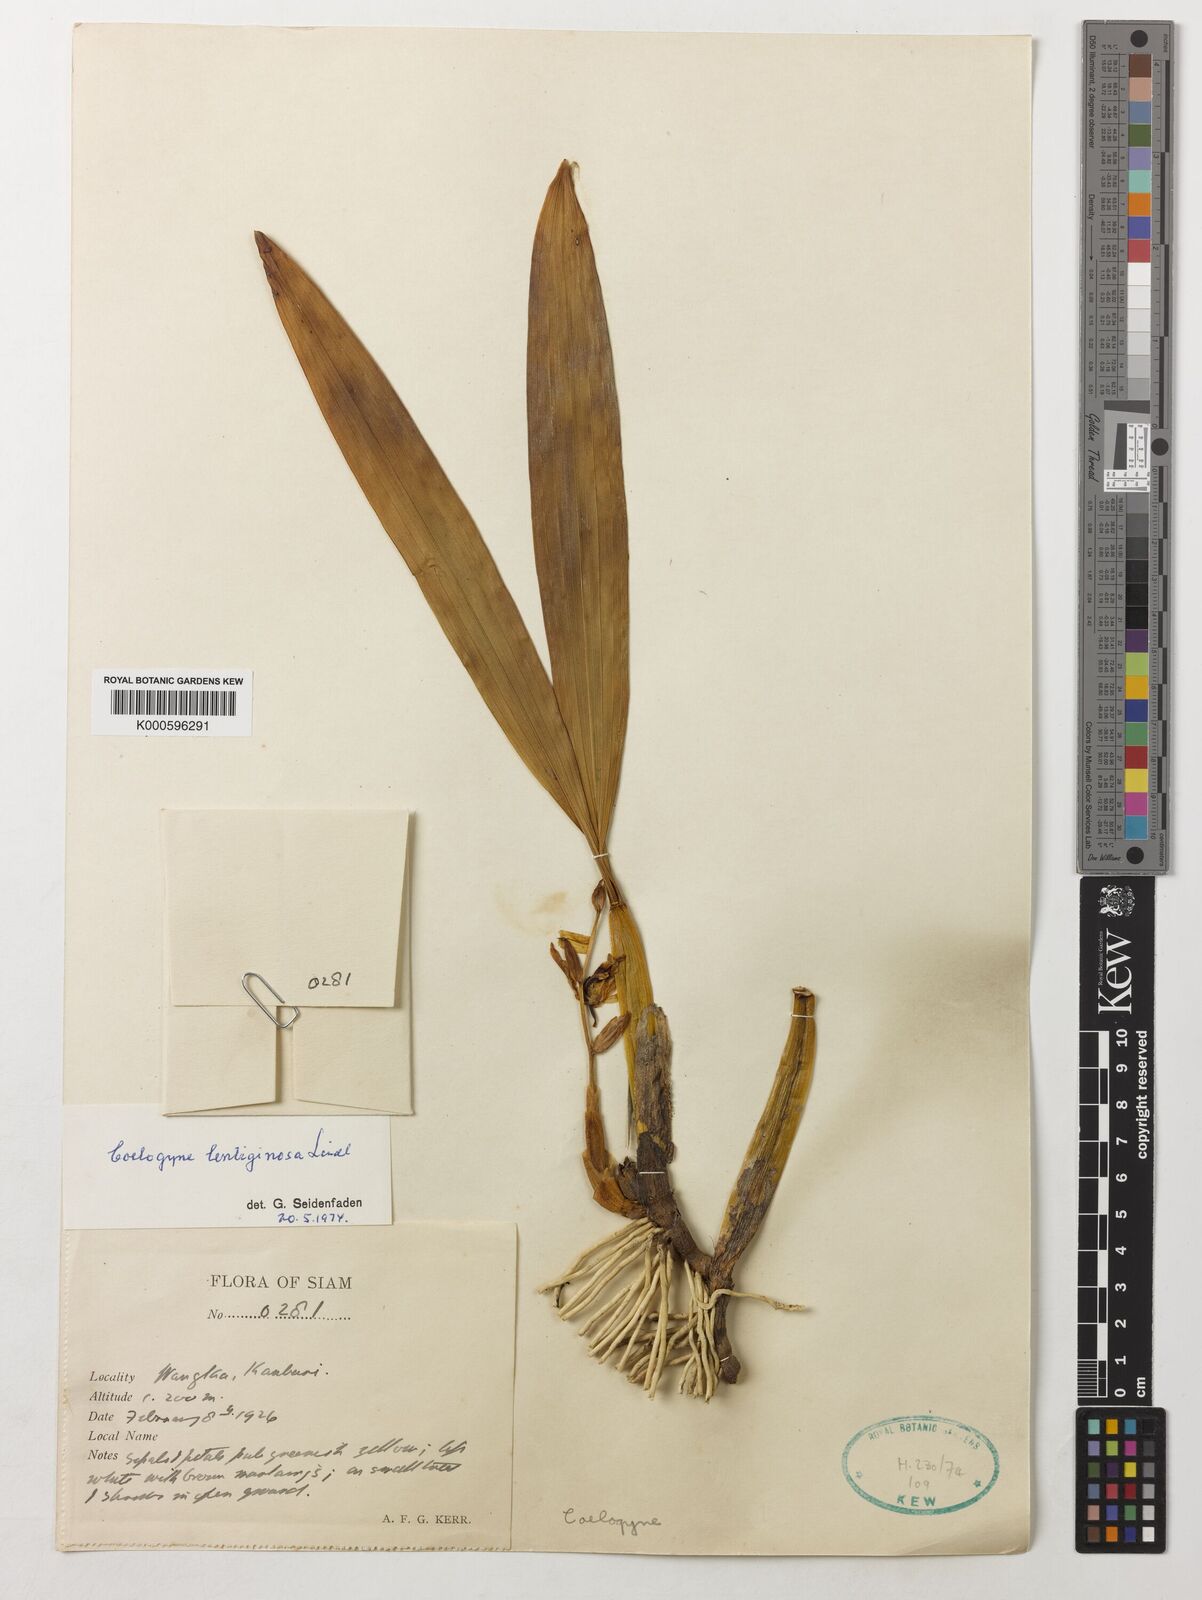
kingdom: Plantae
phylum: Tracheophyta
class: Liliopsida
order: Asparagales
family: Orchidaceae
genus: Coelogyne
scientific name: Coelogyne lentiginosa
